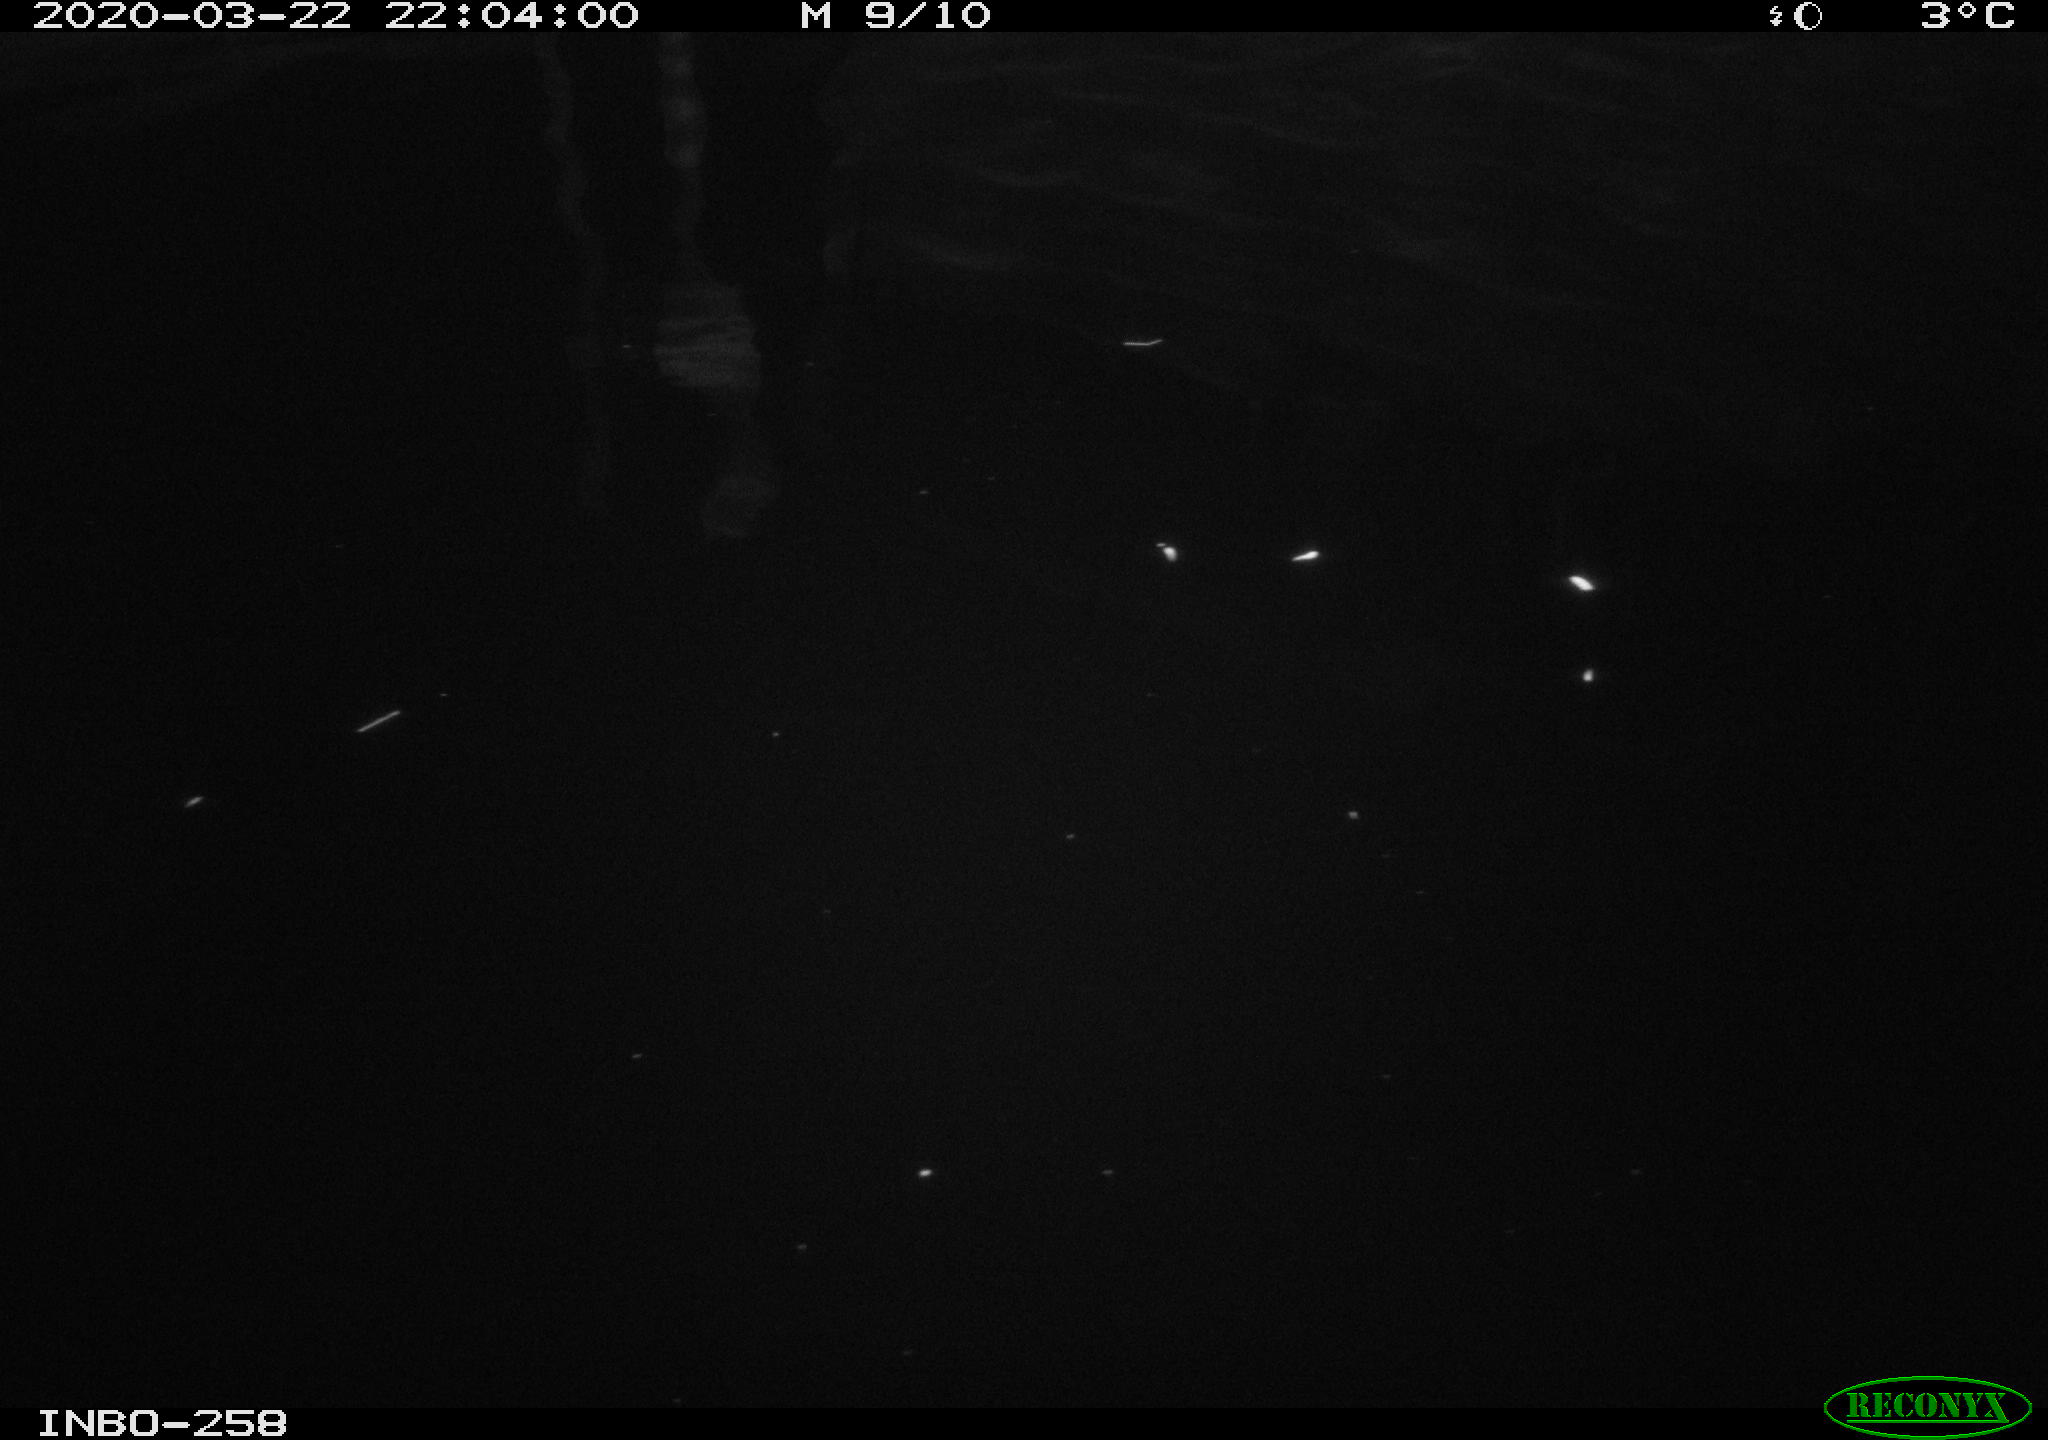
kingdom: Animalia
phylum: Chordata
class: Aves
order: Anseriformes
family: Anatidae
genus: Anas
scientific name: Anas platyrhynchos
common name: Mallard
